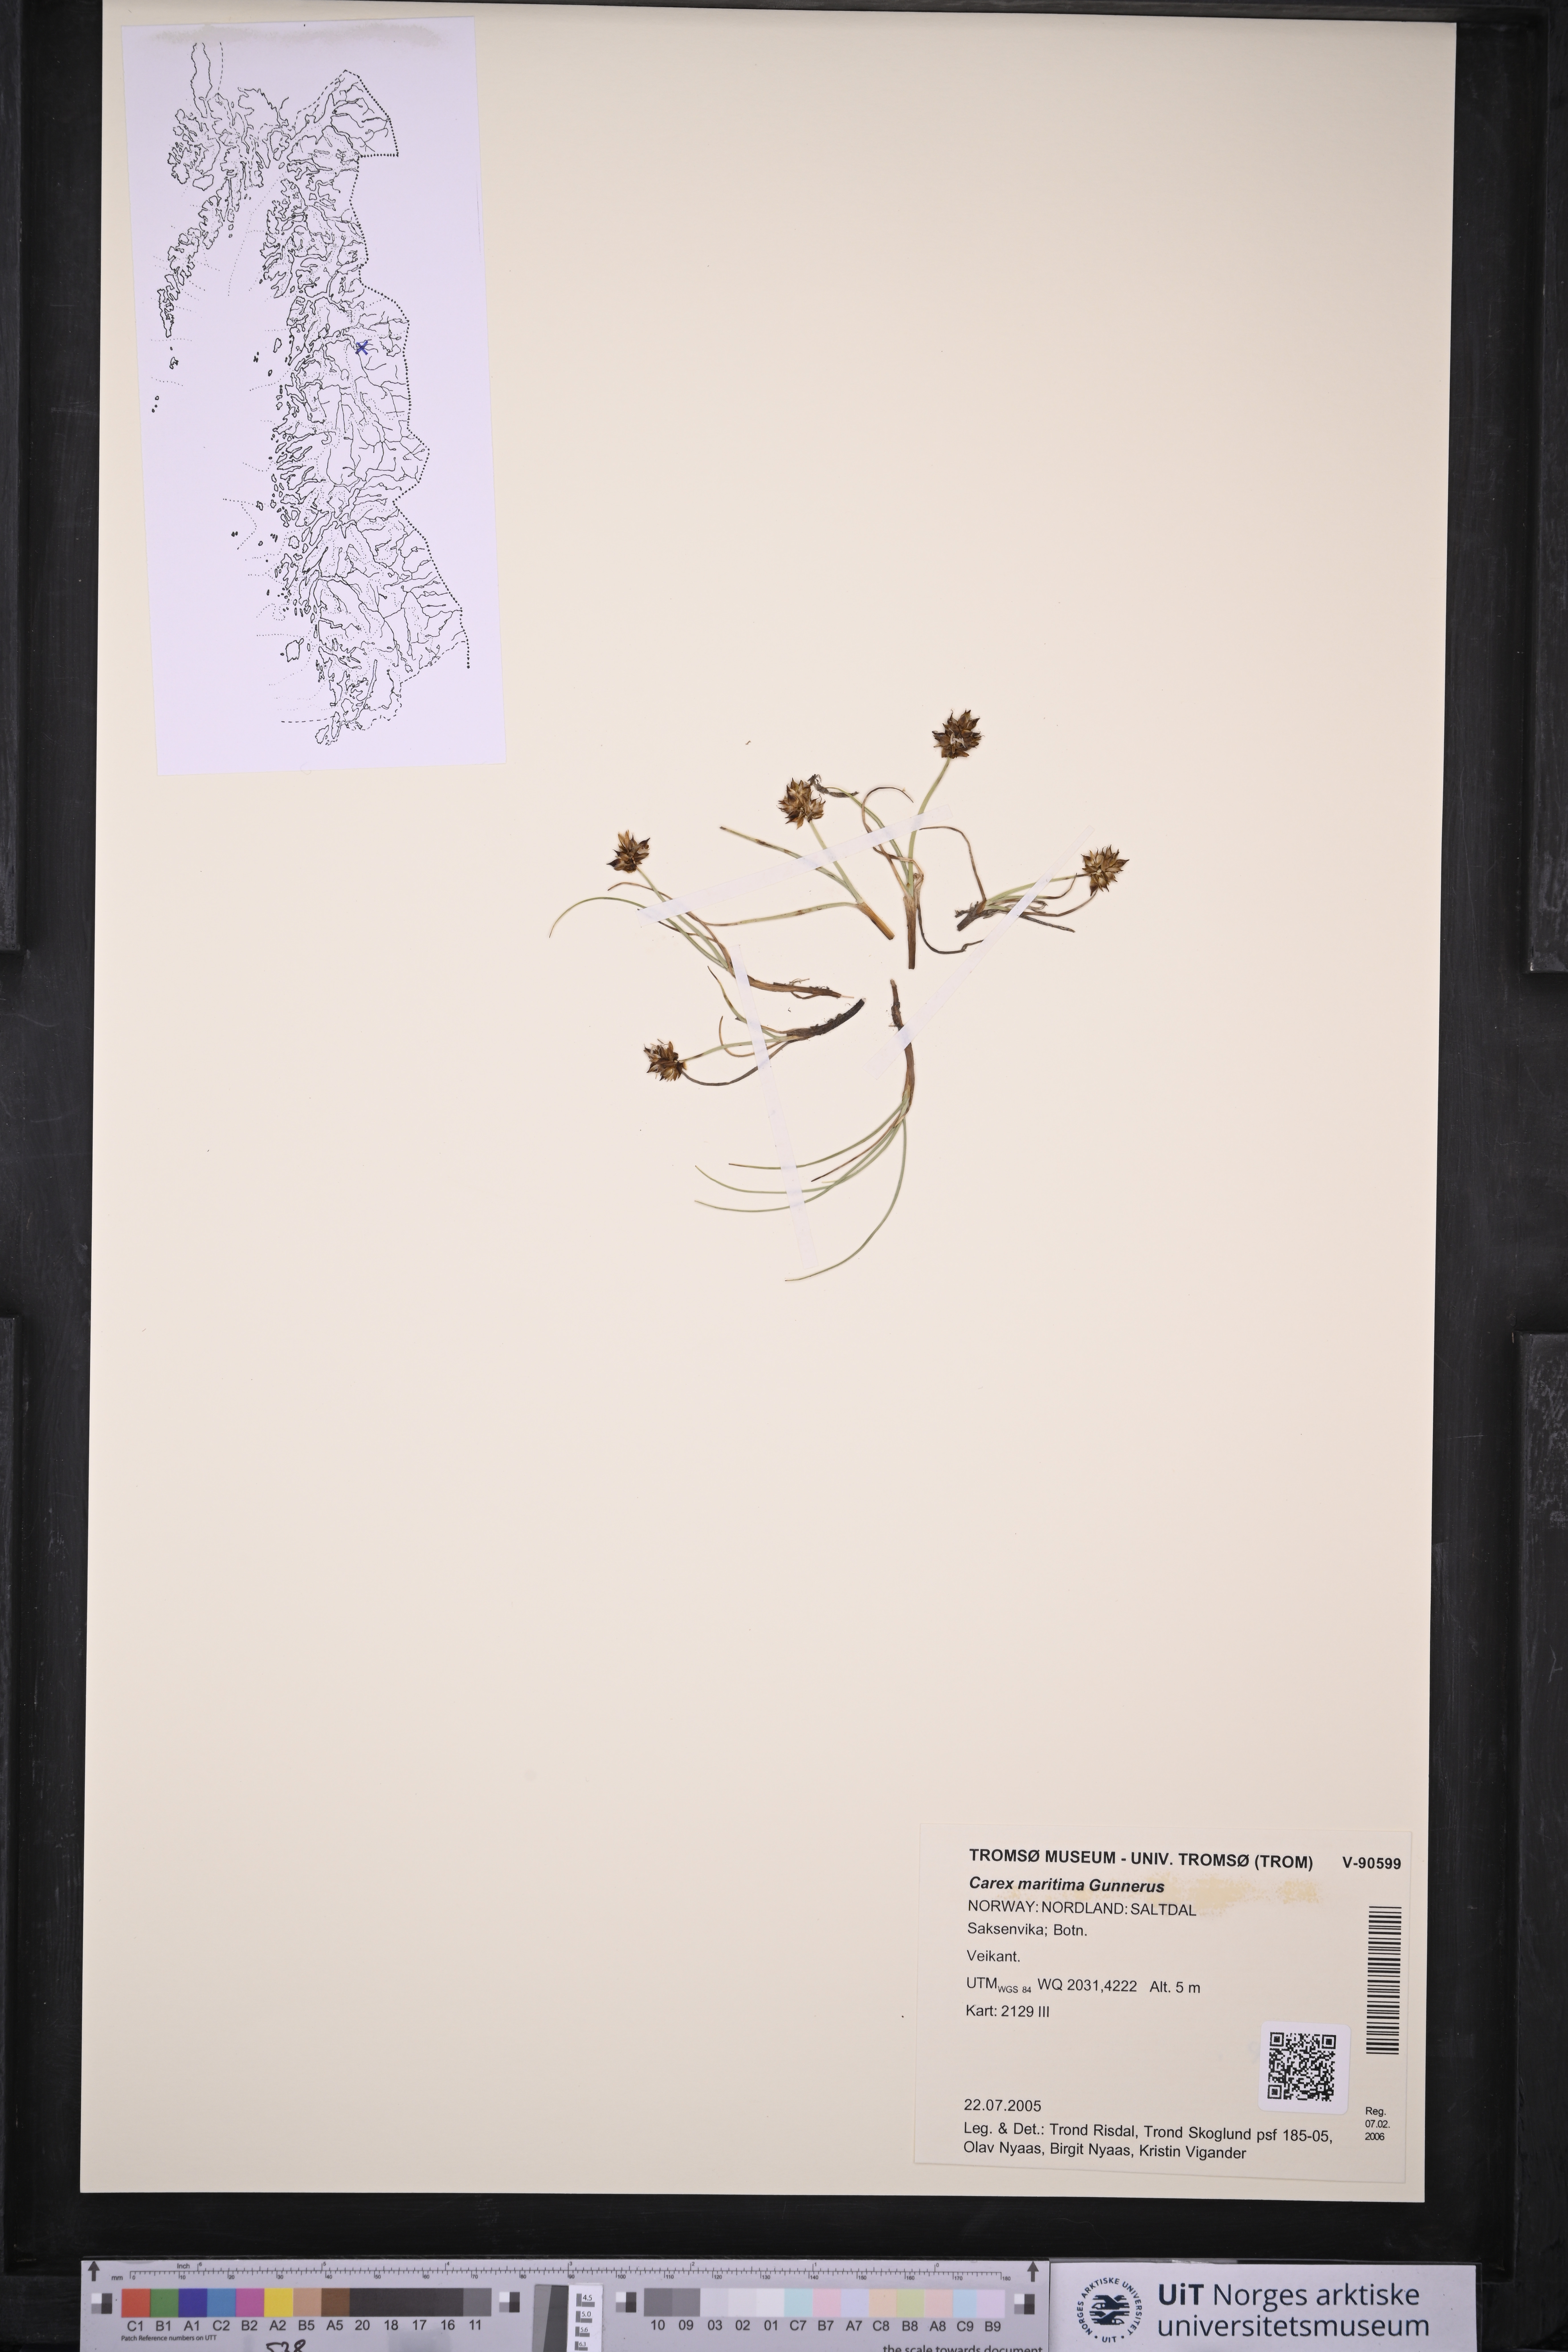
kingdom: Plantae
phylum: Tracheophyta
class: Liliopsida
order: Poales
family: Cyperaceae
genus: Carex
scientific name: Carex maritima
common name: Curved sedge
